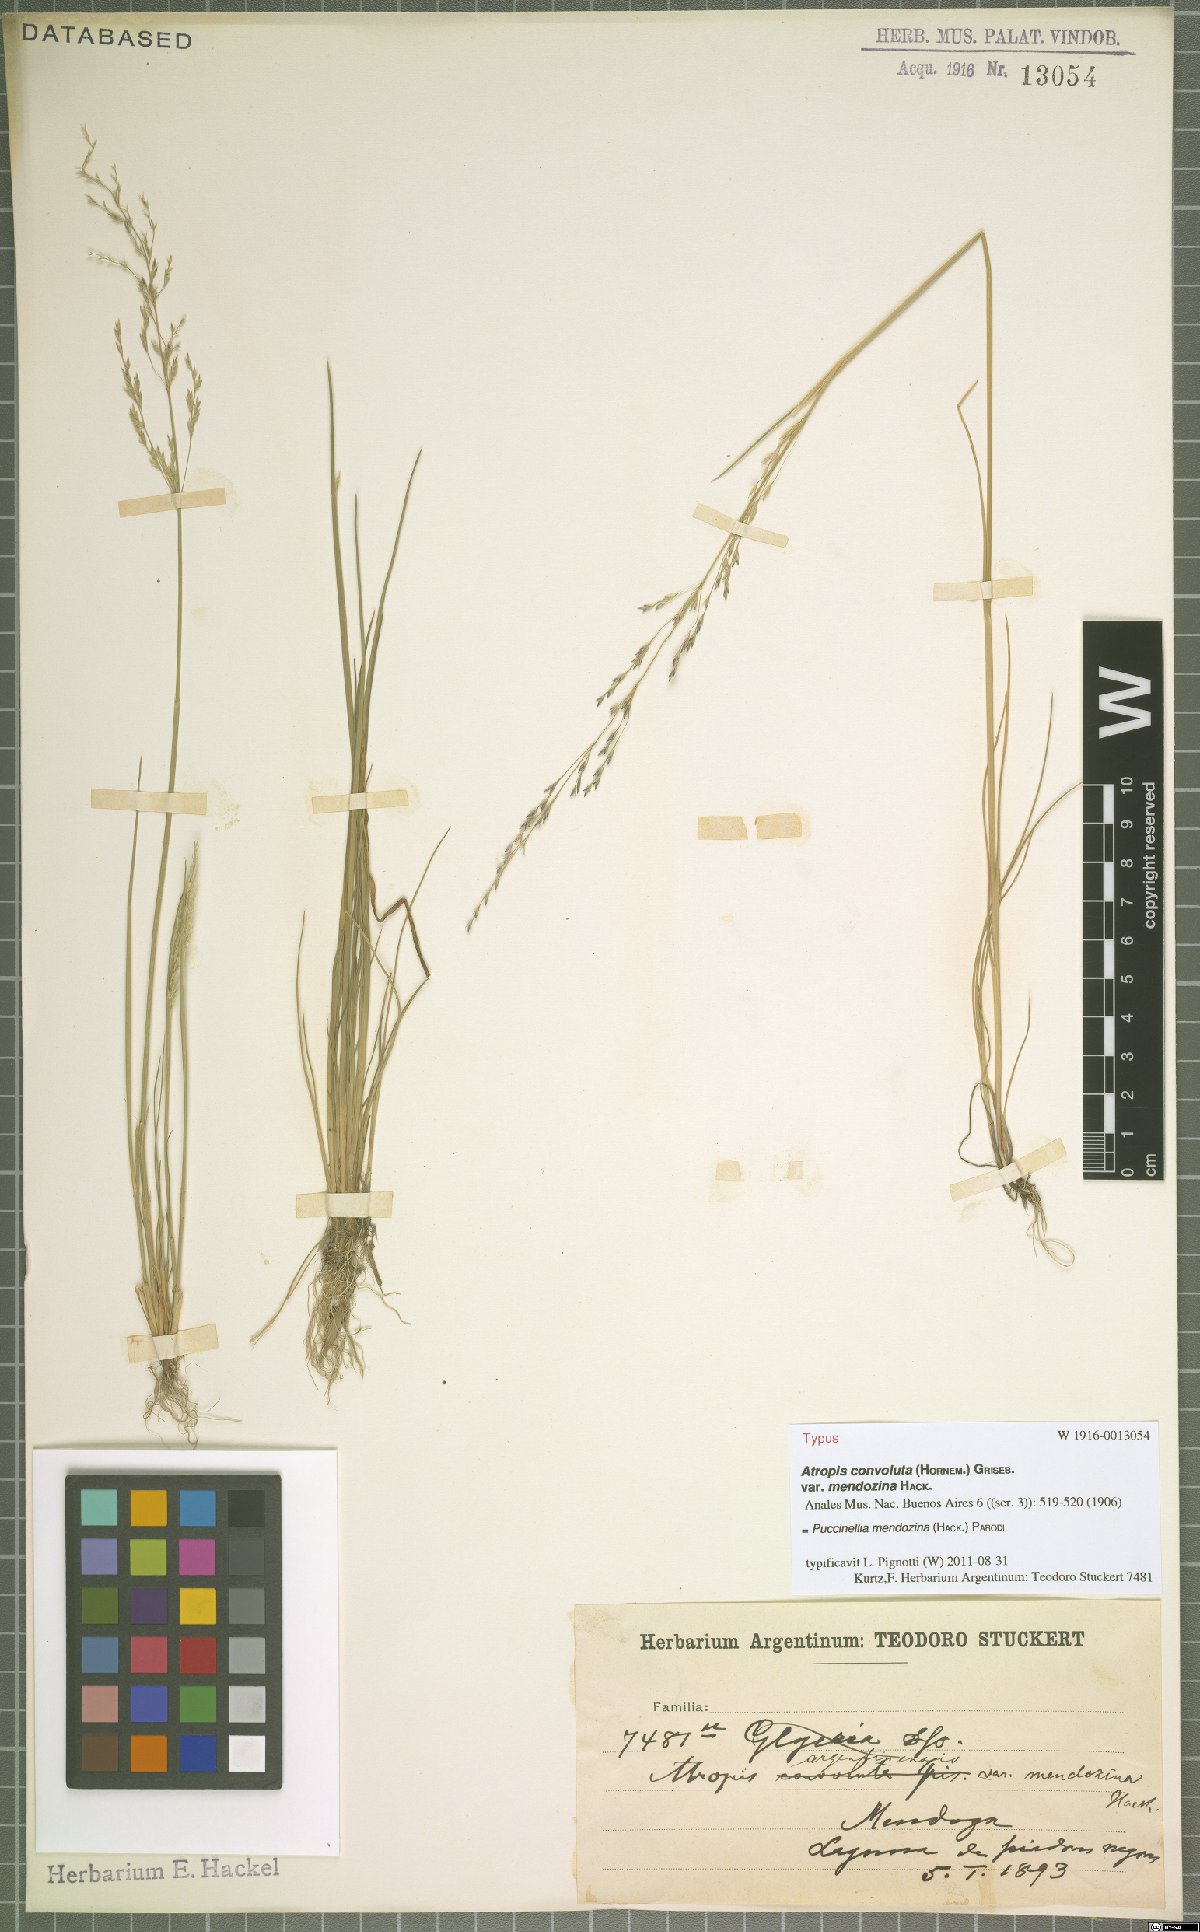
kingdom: Plantae
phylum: Tracheophyta
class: Liliopsida
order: Poales
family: Poaceae
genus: Puccinellia
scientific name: Puccinellia mendozina
